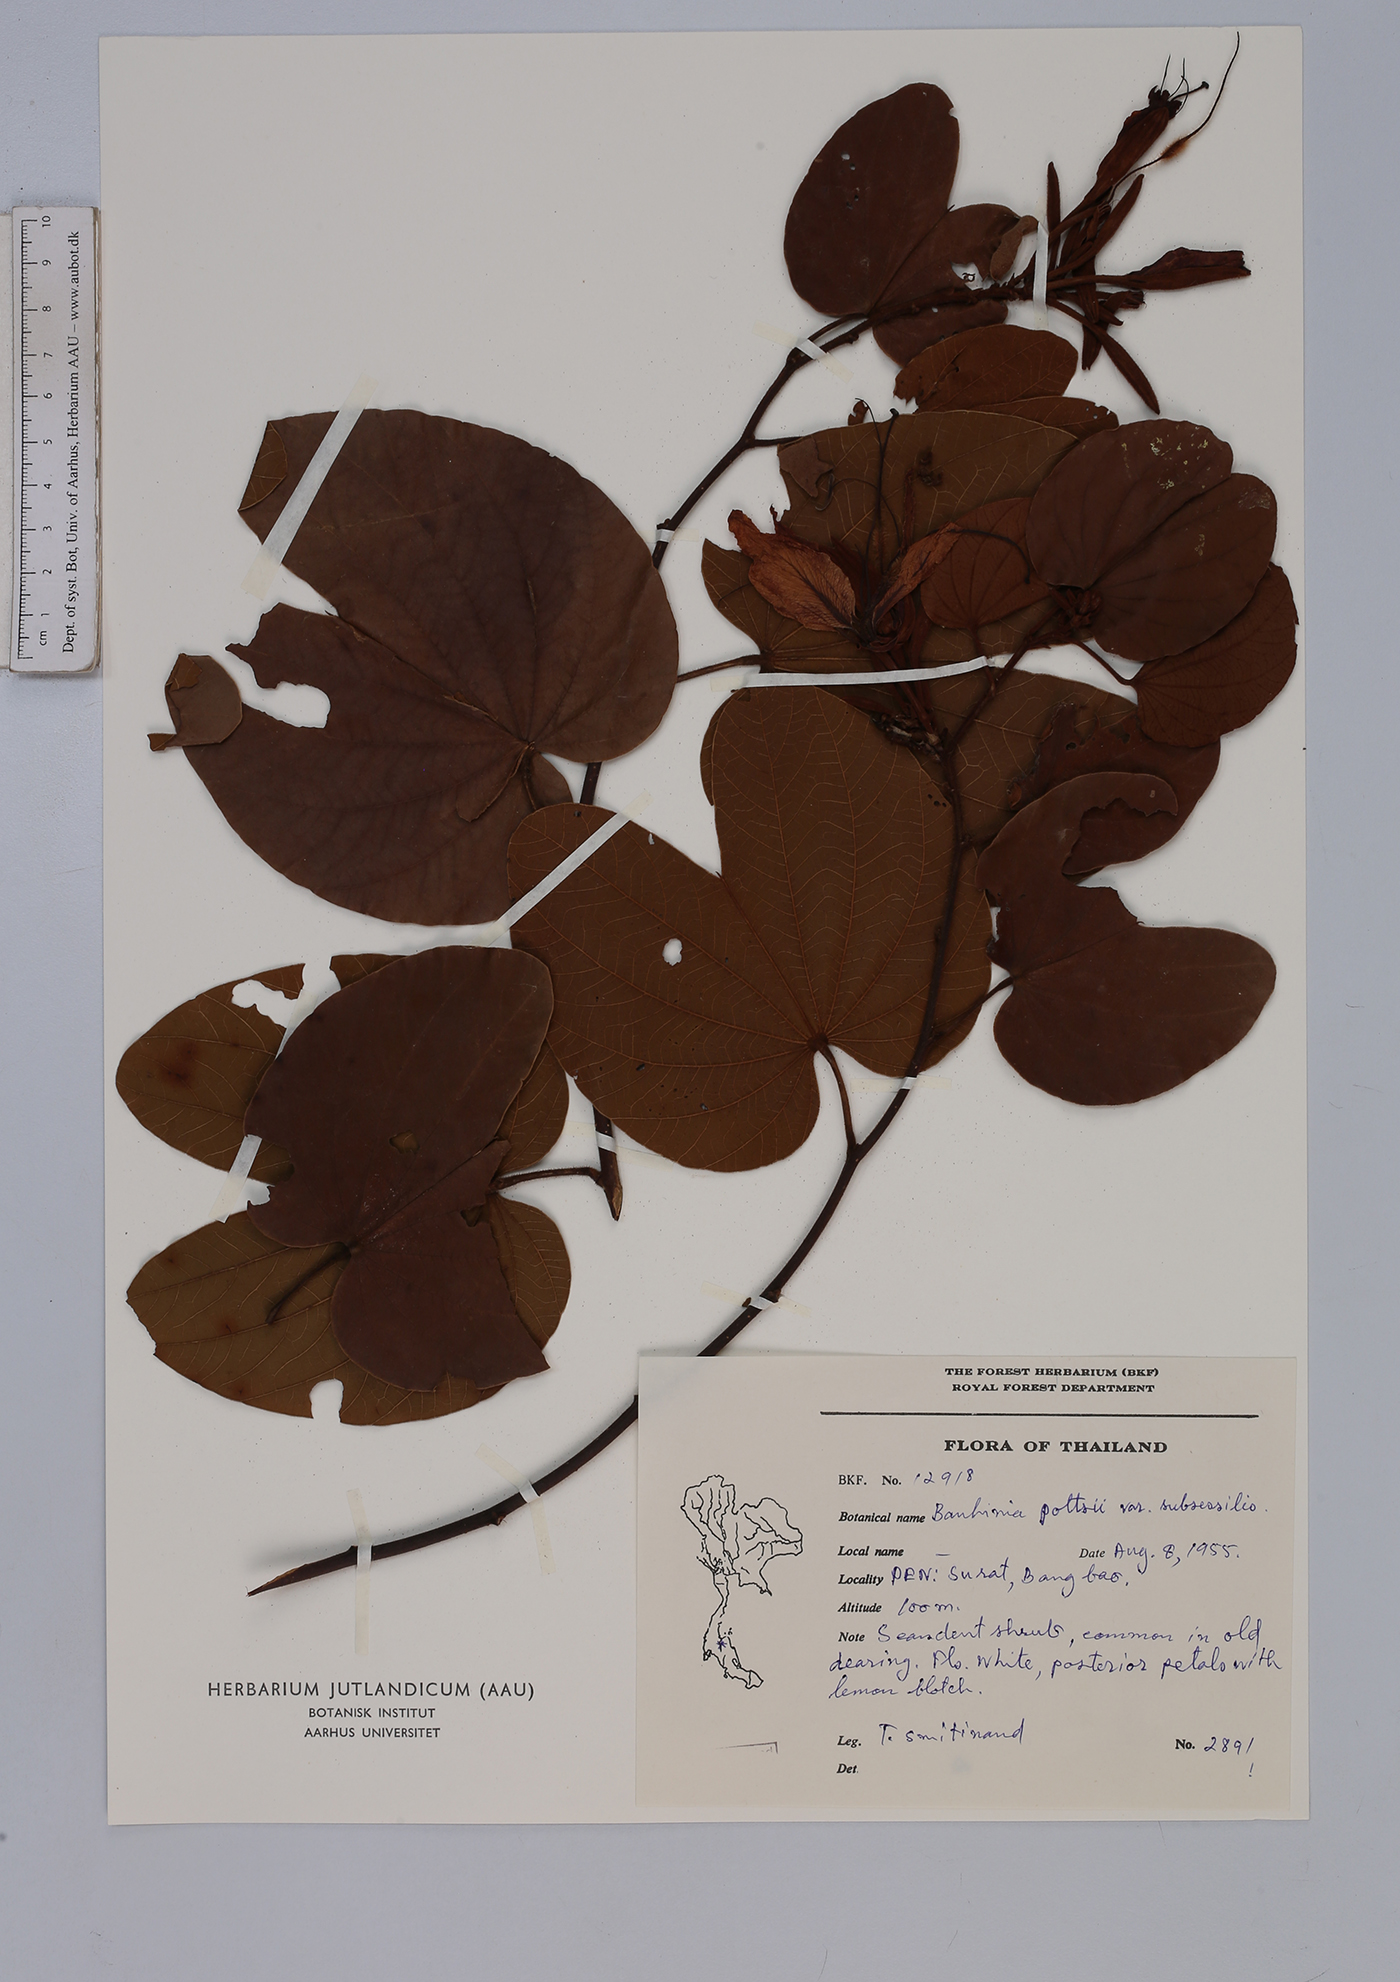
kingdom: Plantae
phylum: Tracheophyta
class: Magnoliopsida
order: Fabales
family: Fabaceae
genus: Bauhinia
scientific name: Bauhinia pottsii
